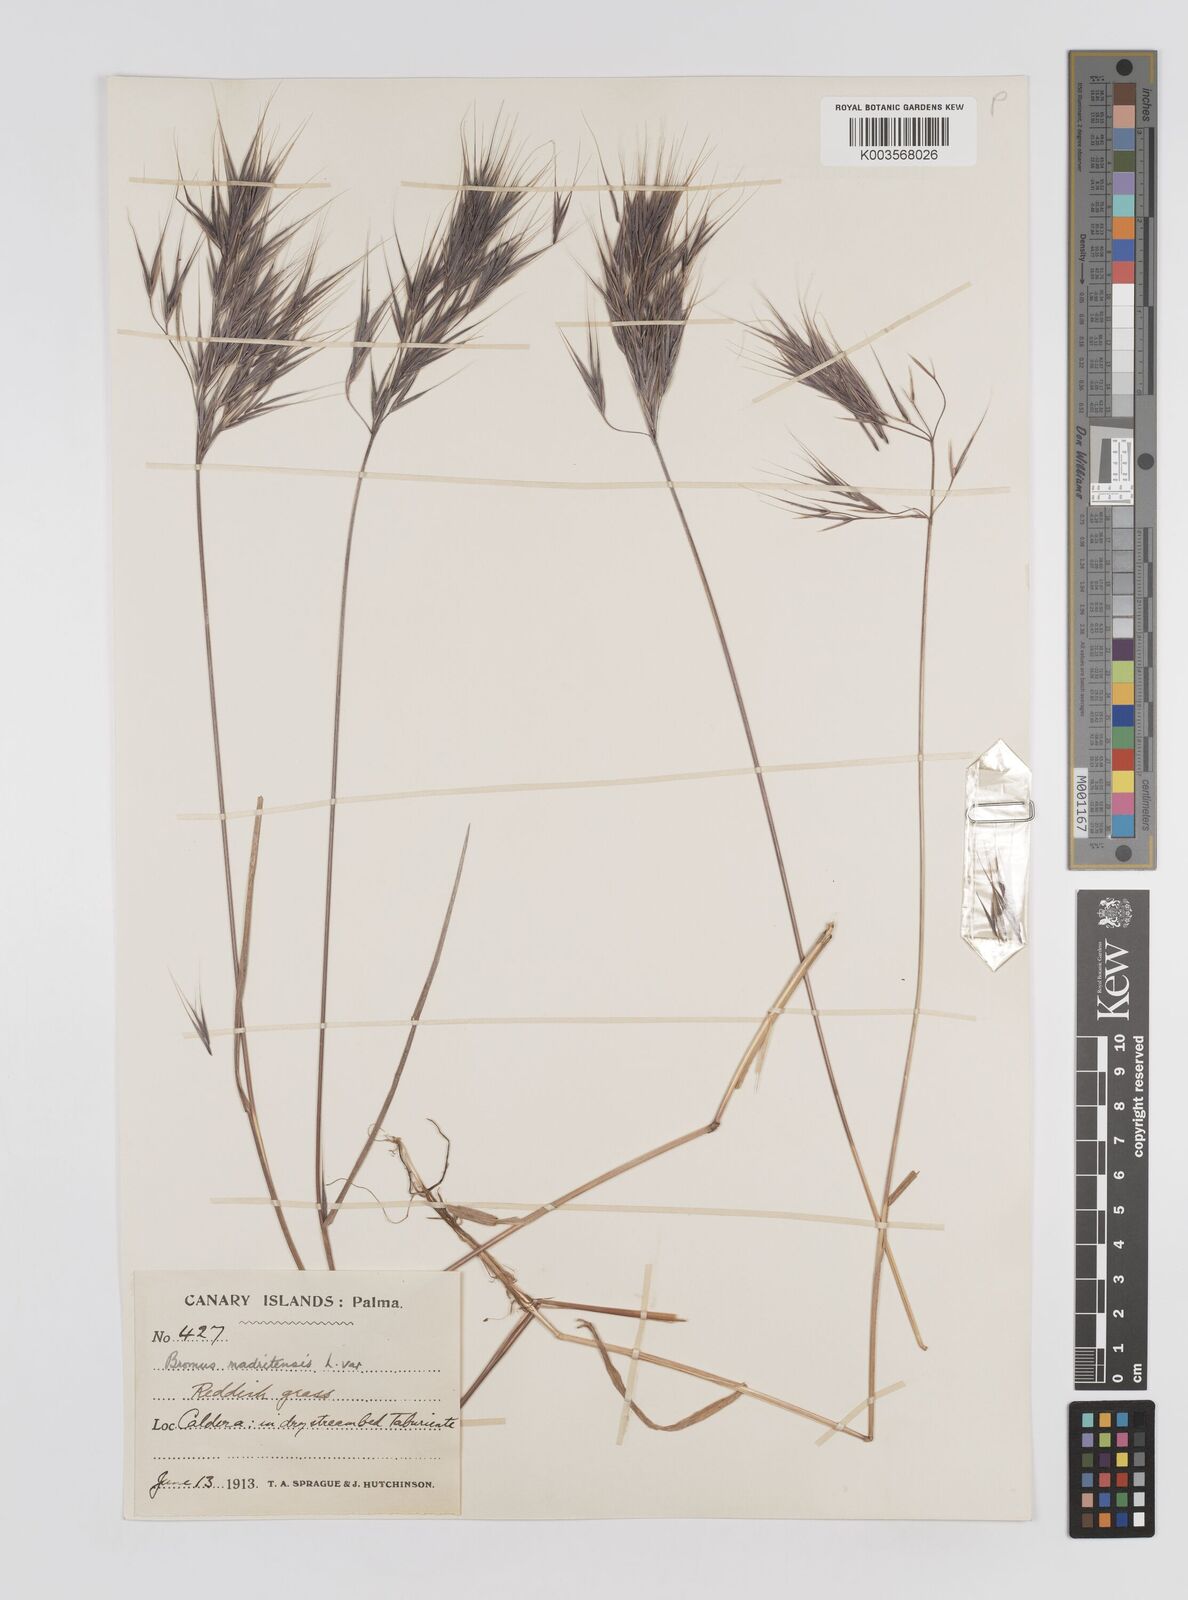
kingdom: Plantae
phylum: Tracheophyta
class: Liliopsida
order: Poales
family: Poaceae
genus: Bromus
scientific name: Bromus
